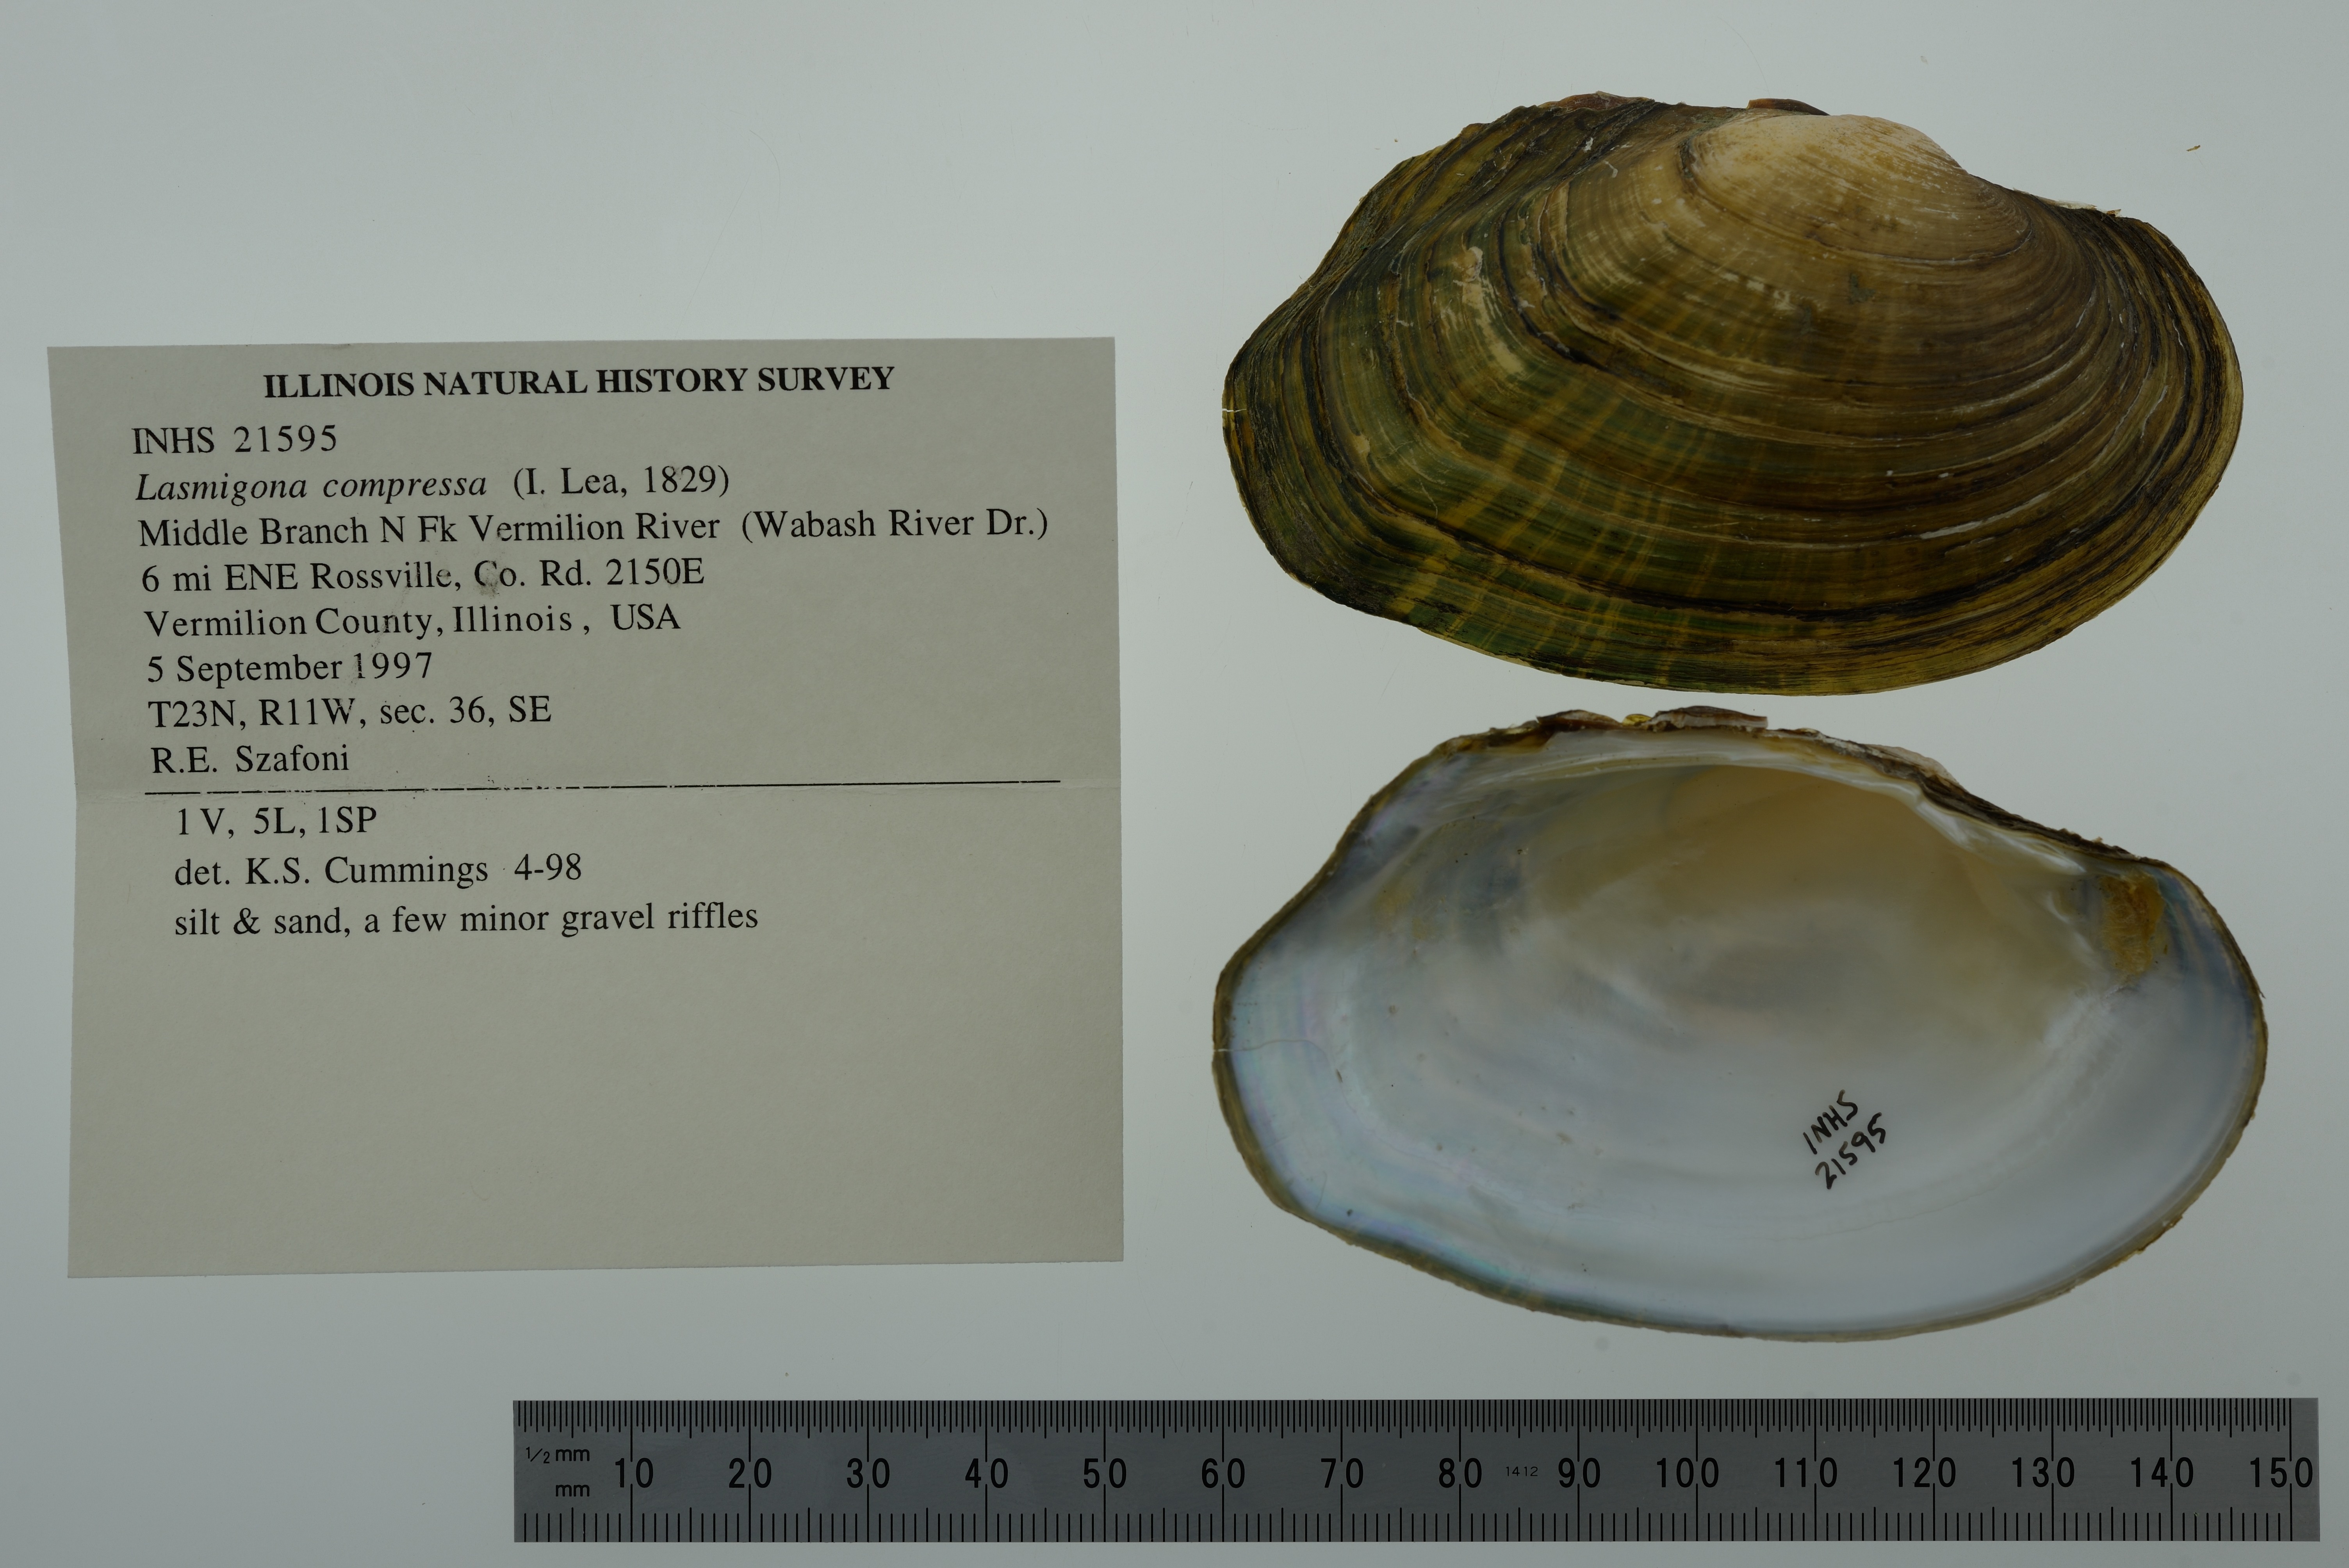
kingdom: Animalia
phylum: Mollusca
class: Bivalvia
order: Unionida
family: Unionidae
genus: Lasmigona
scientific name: Lasmigona compressa
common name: Creek heelsplitter
